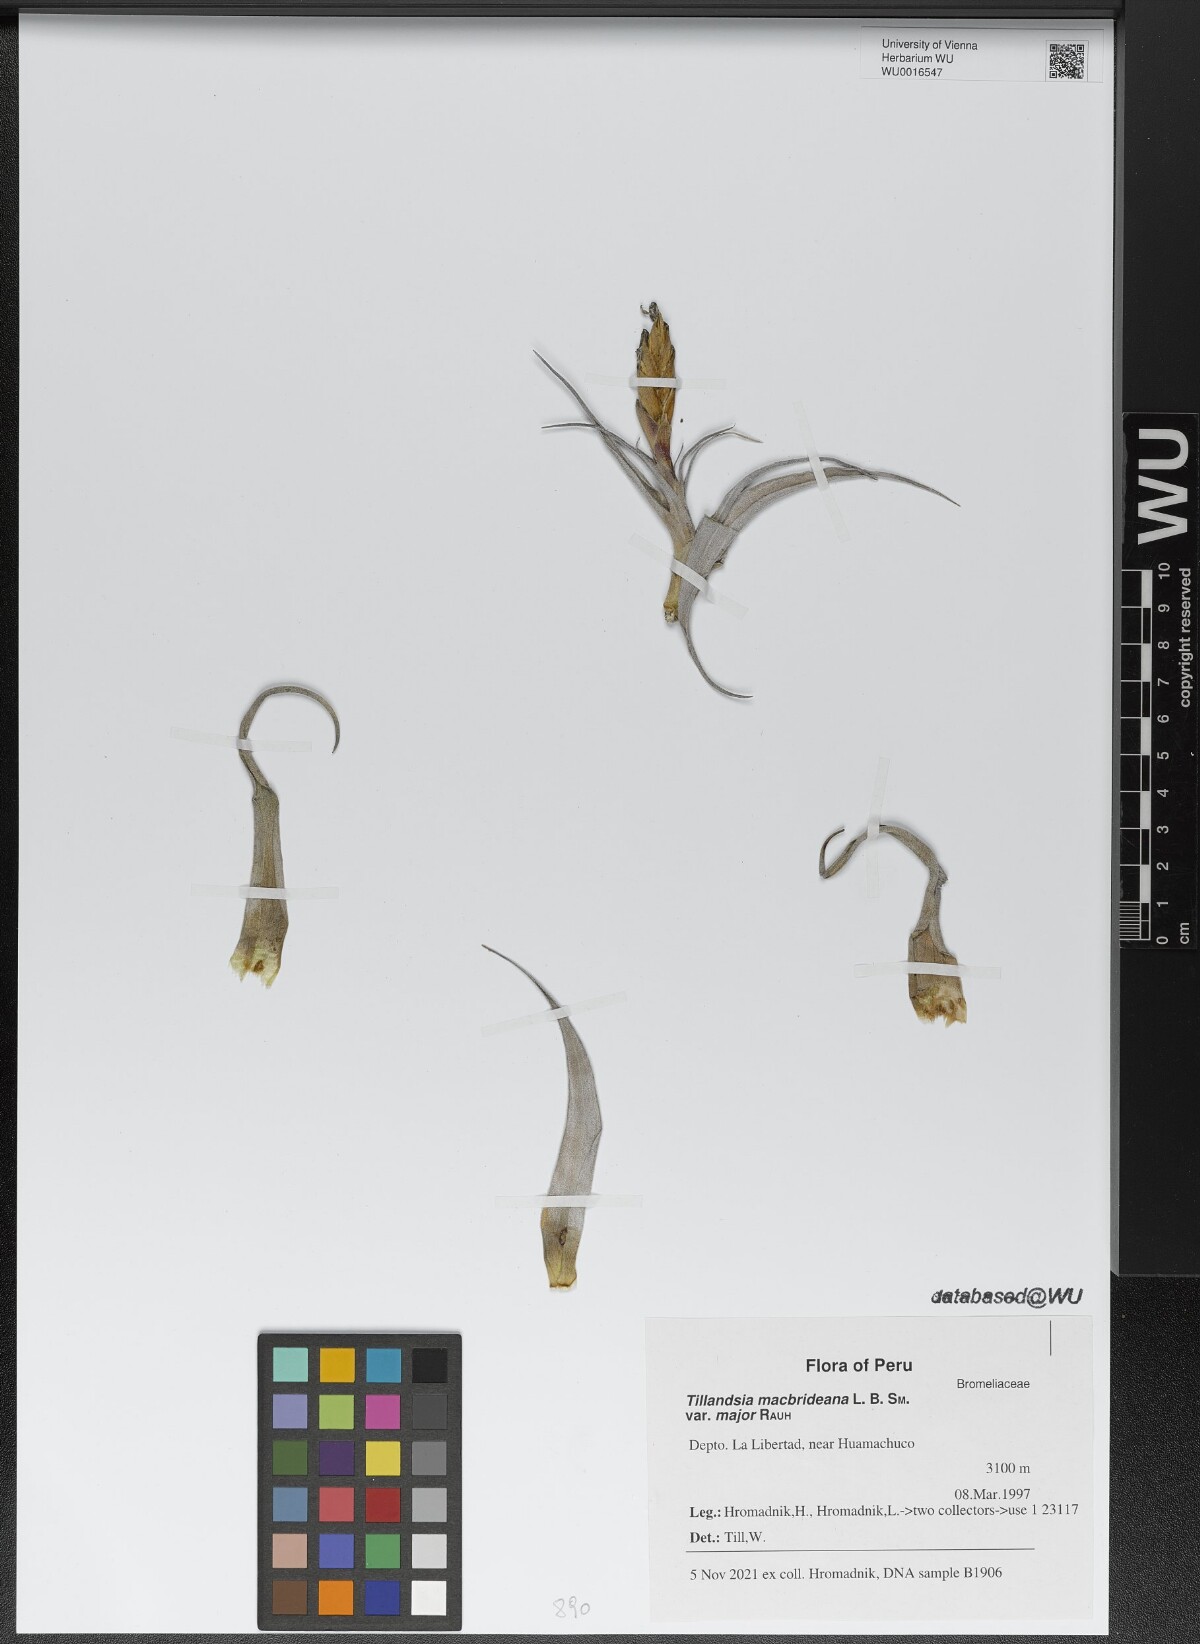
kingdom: Plantae
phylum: Tracheophyta
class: Liliopsida
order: Poales
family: Bromeliaceae
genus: Tillandsia
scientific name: Tillandsia macbrideana
